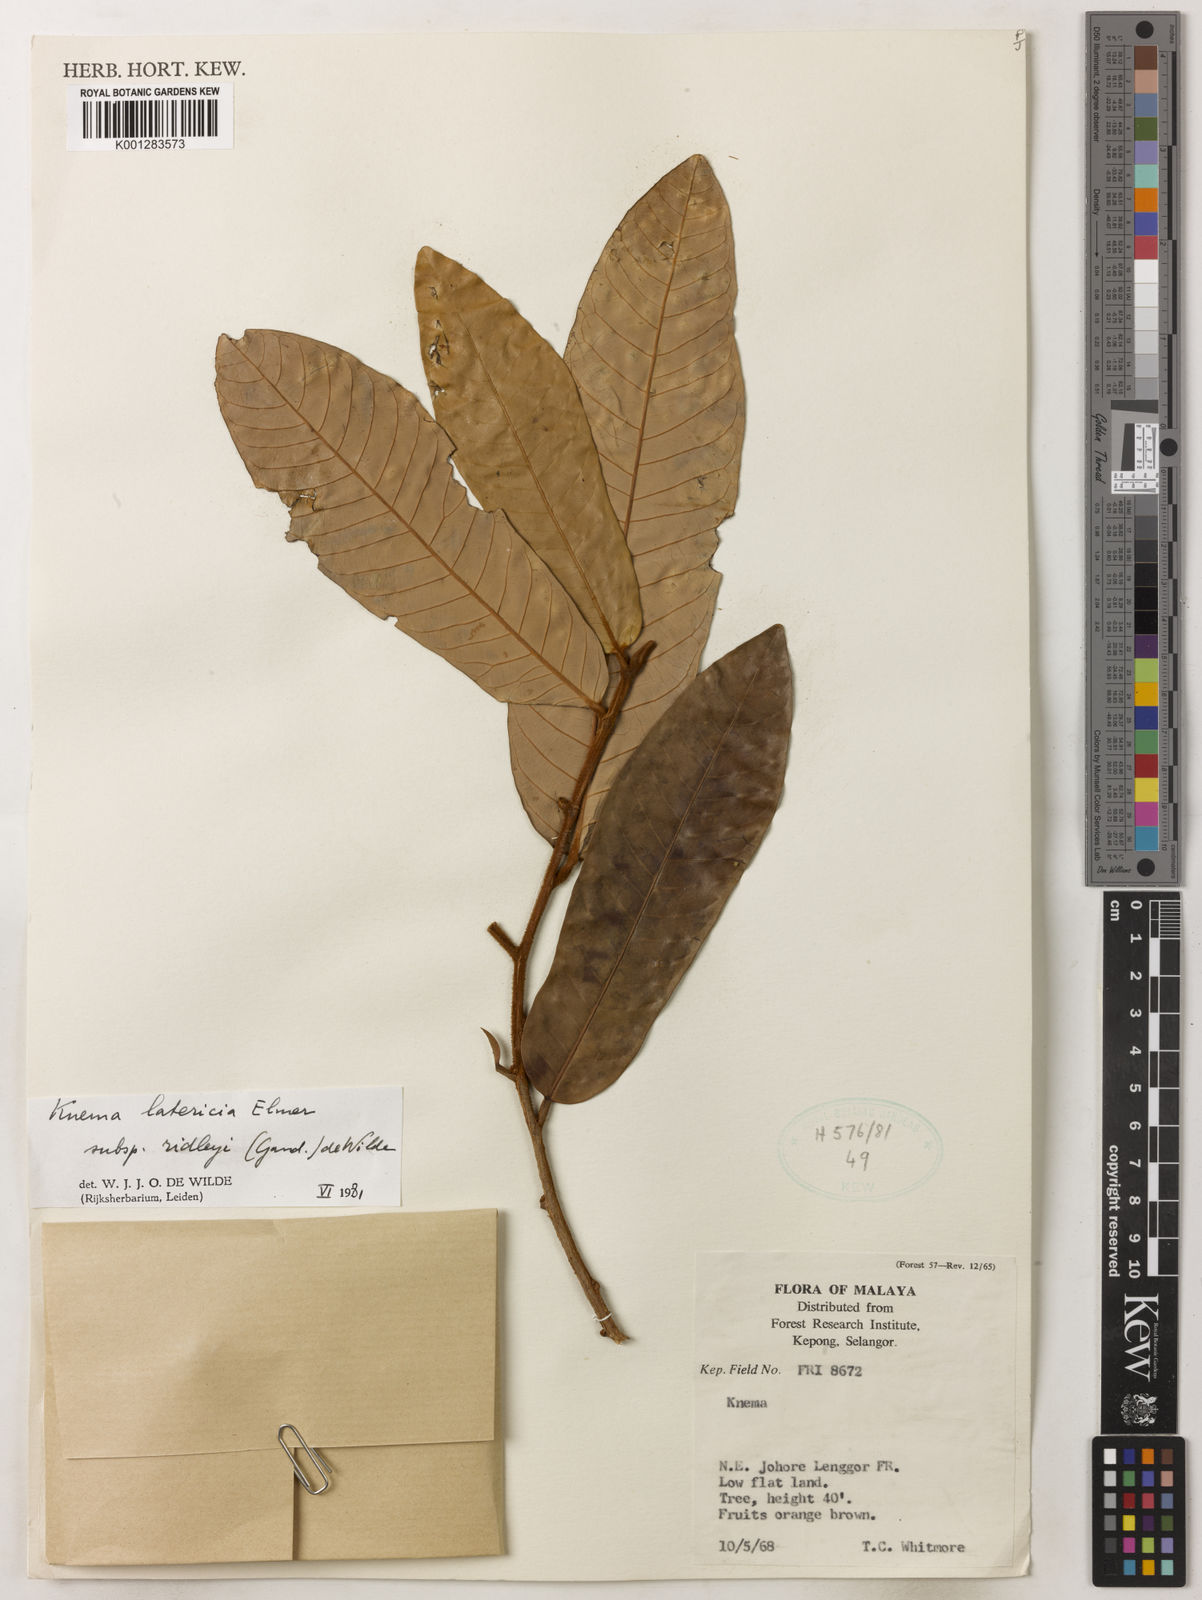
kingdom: Plantae
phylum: Tracheophyta
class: Magnoliopsida
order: Magnoliales
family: Myristicaceae
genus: Knema
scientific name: Knema latericia
